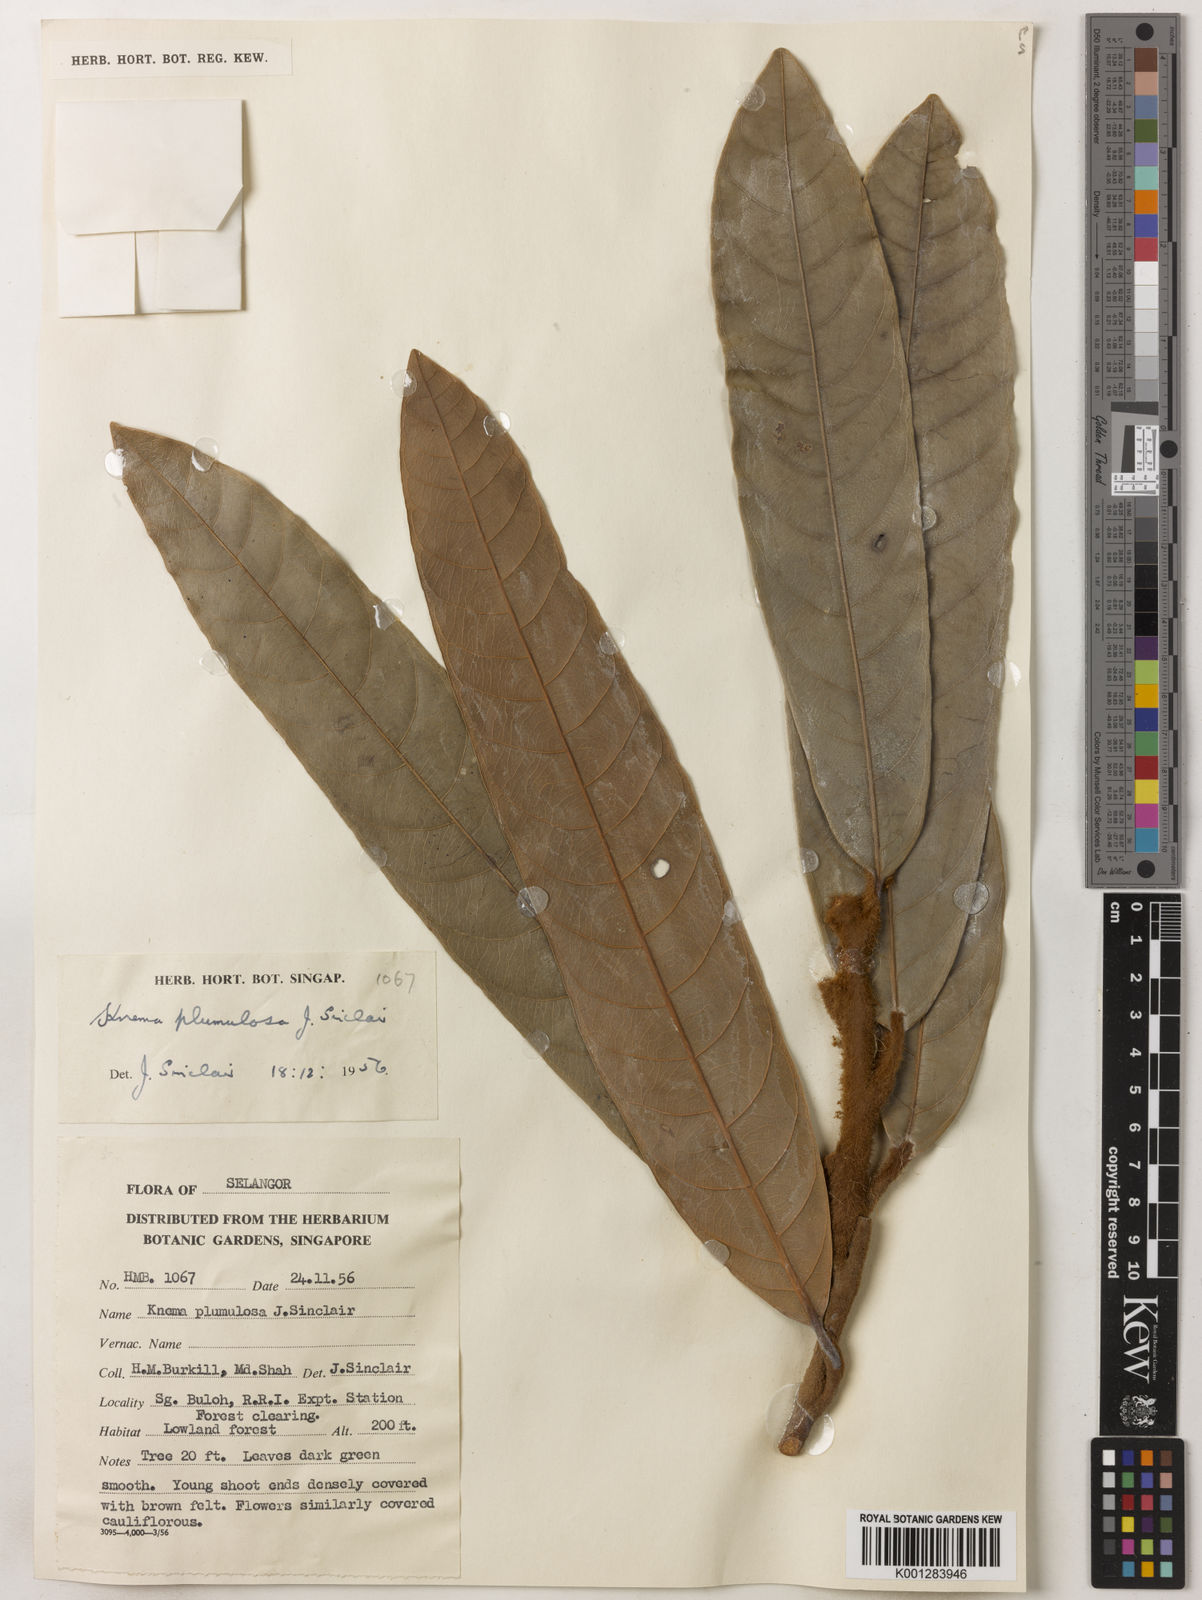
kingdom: Plantae
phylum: Tracheophyta
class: Magnoliopsida
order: Magnoliales
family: Myristicaceae
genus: Knema
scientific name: Knema plumulosa
